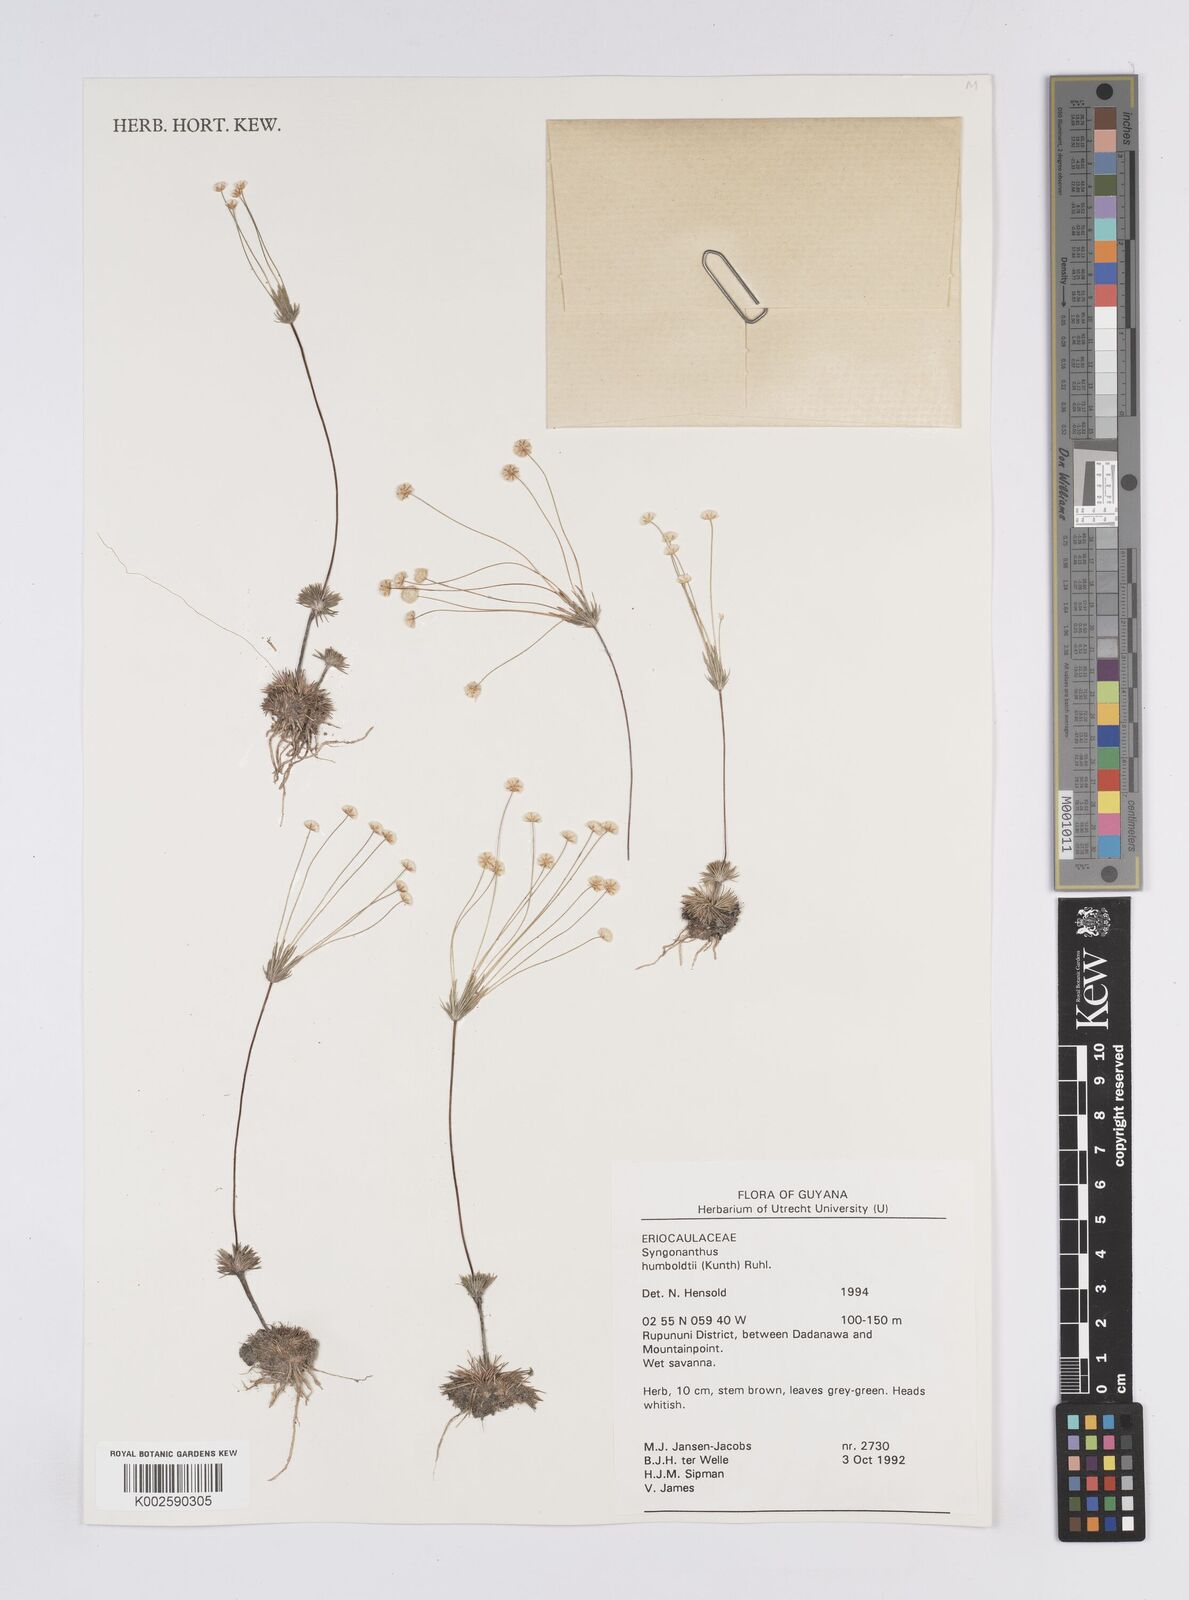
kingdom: Plantae
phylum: Tracheophyta
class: Liliopsida
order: Poales
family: Eriocaulaceae
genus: Syngonanthus
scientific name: Syngonanthus humboldtii
